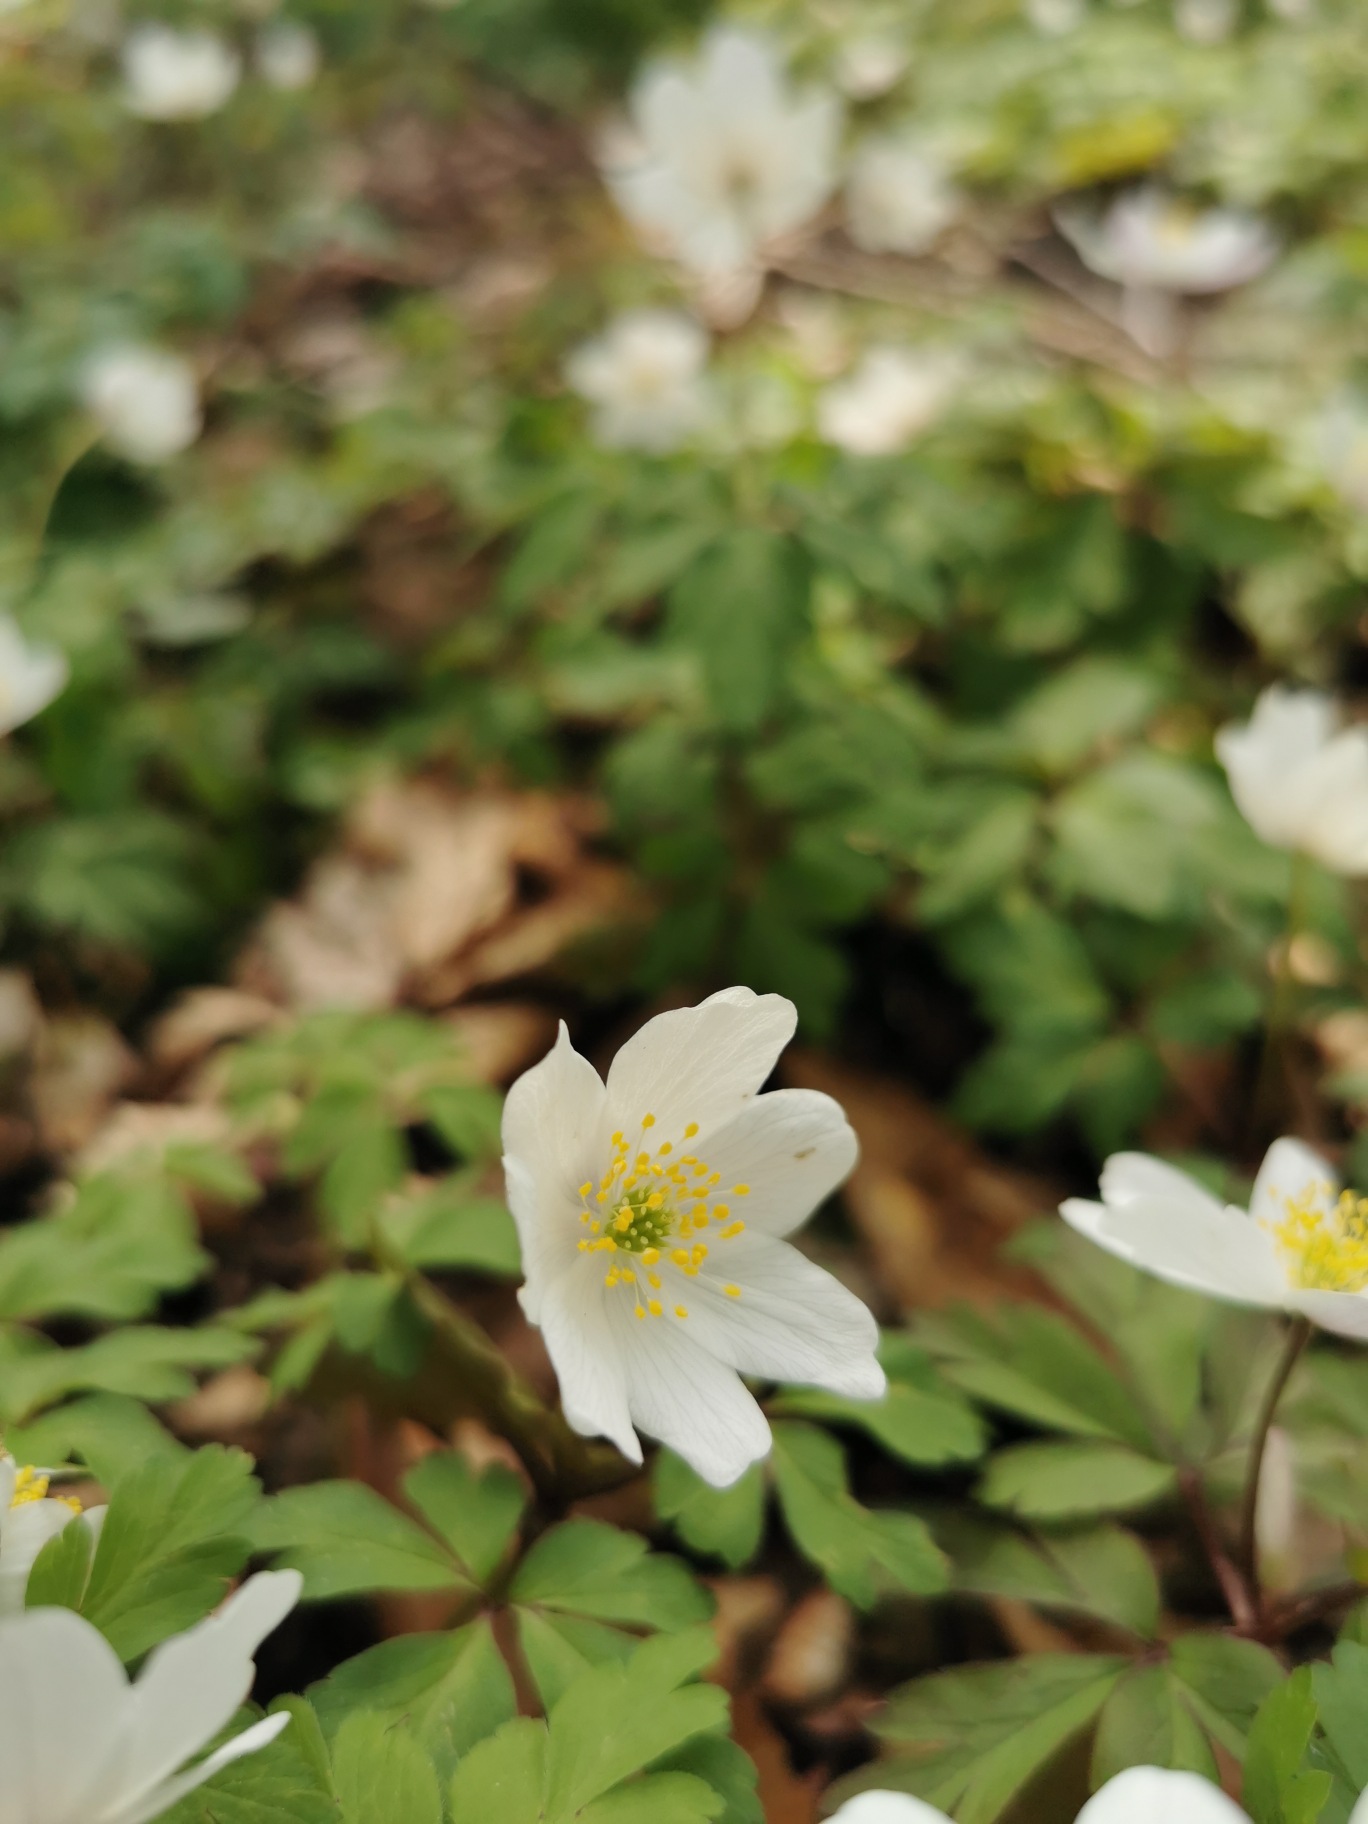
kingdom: Plantae
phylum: Tracheophyta
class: Magnoliopsida
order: Ranunculales
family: Ranunculaceae
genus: Anemone
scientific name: Anemone nemorosa
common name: Hvid anemone
